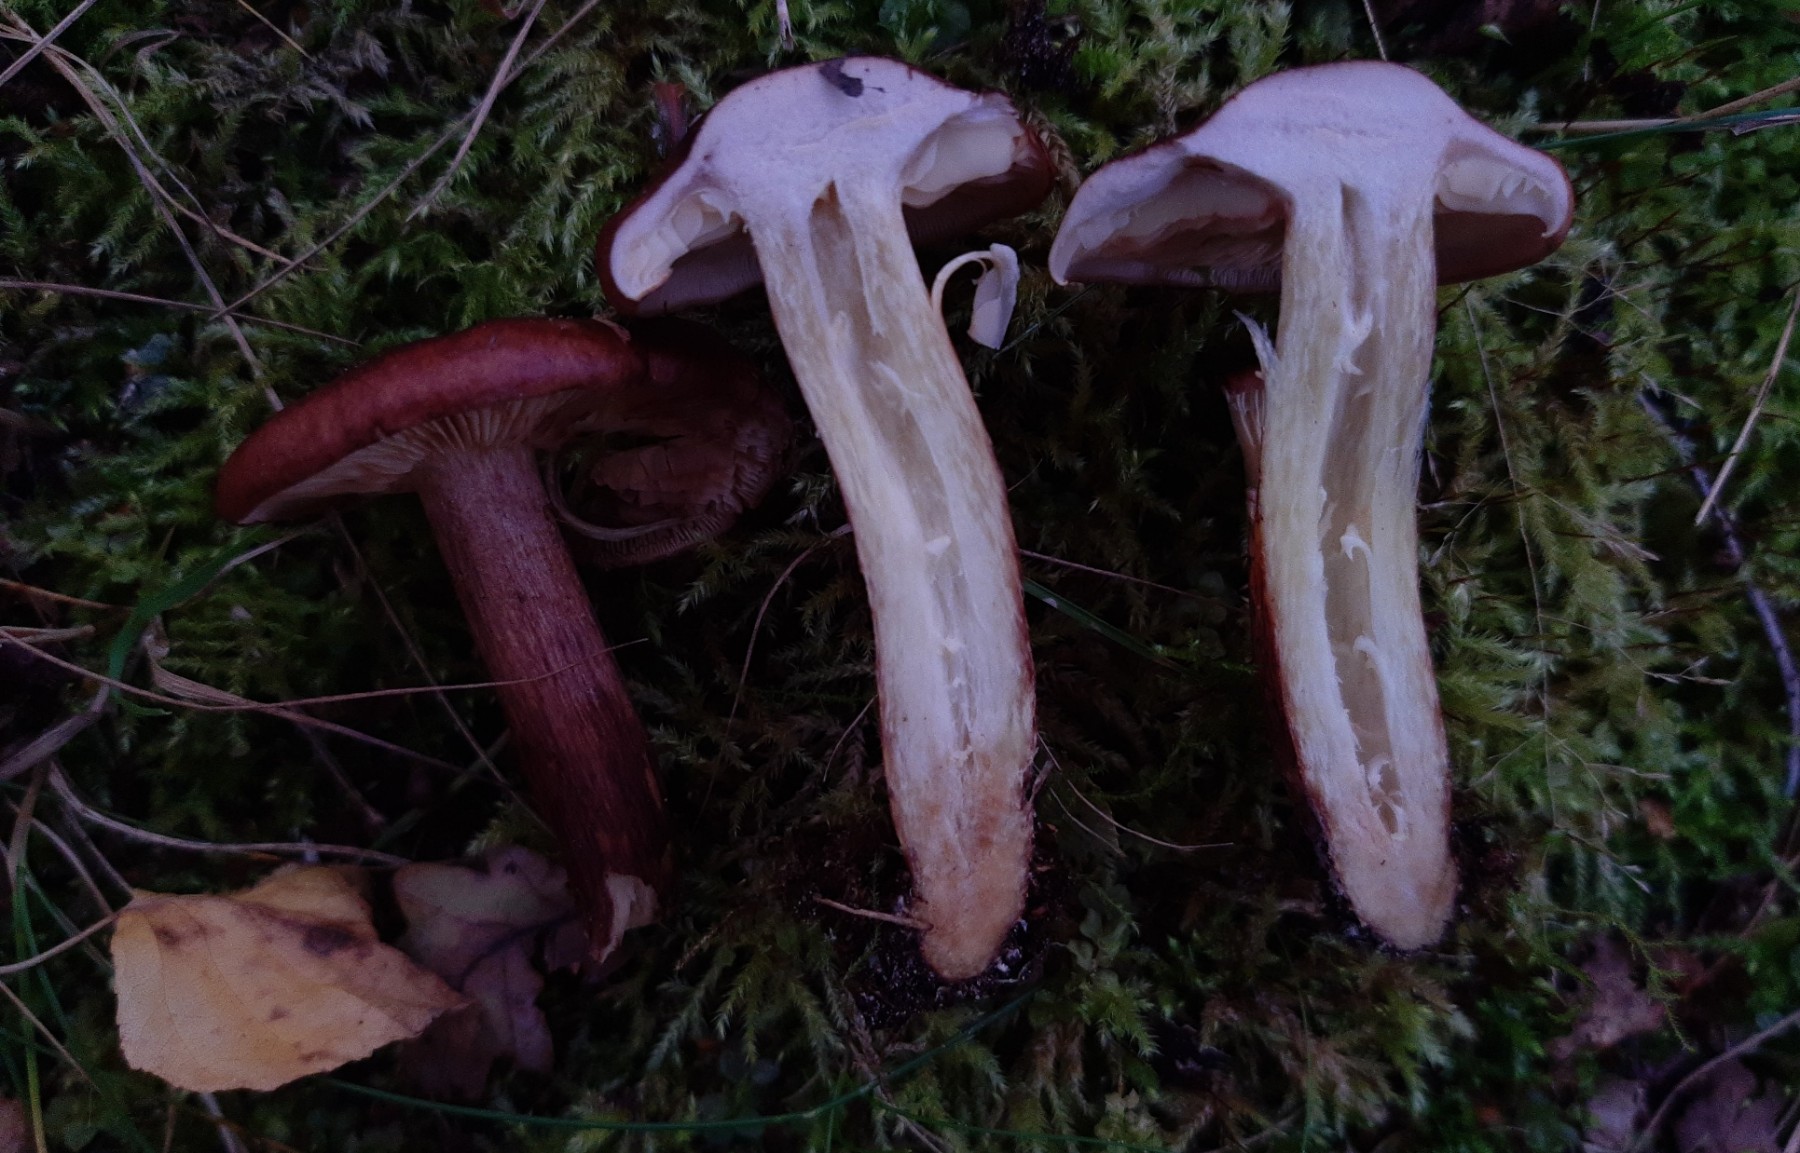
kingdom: Fungi
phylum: Basidiomycota
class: Agaricomycetes
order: Agaricales
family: Tricholomataceae
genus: Tricholoma
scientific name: Tricholoma fulvum
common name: birke-ridderhat
